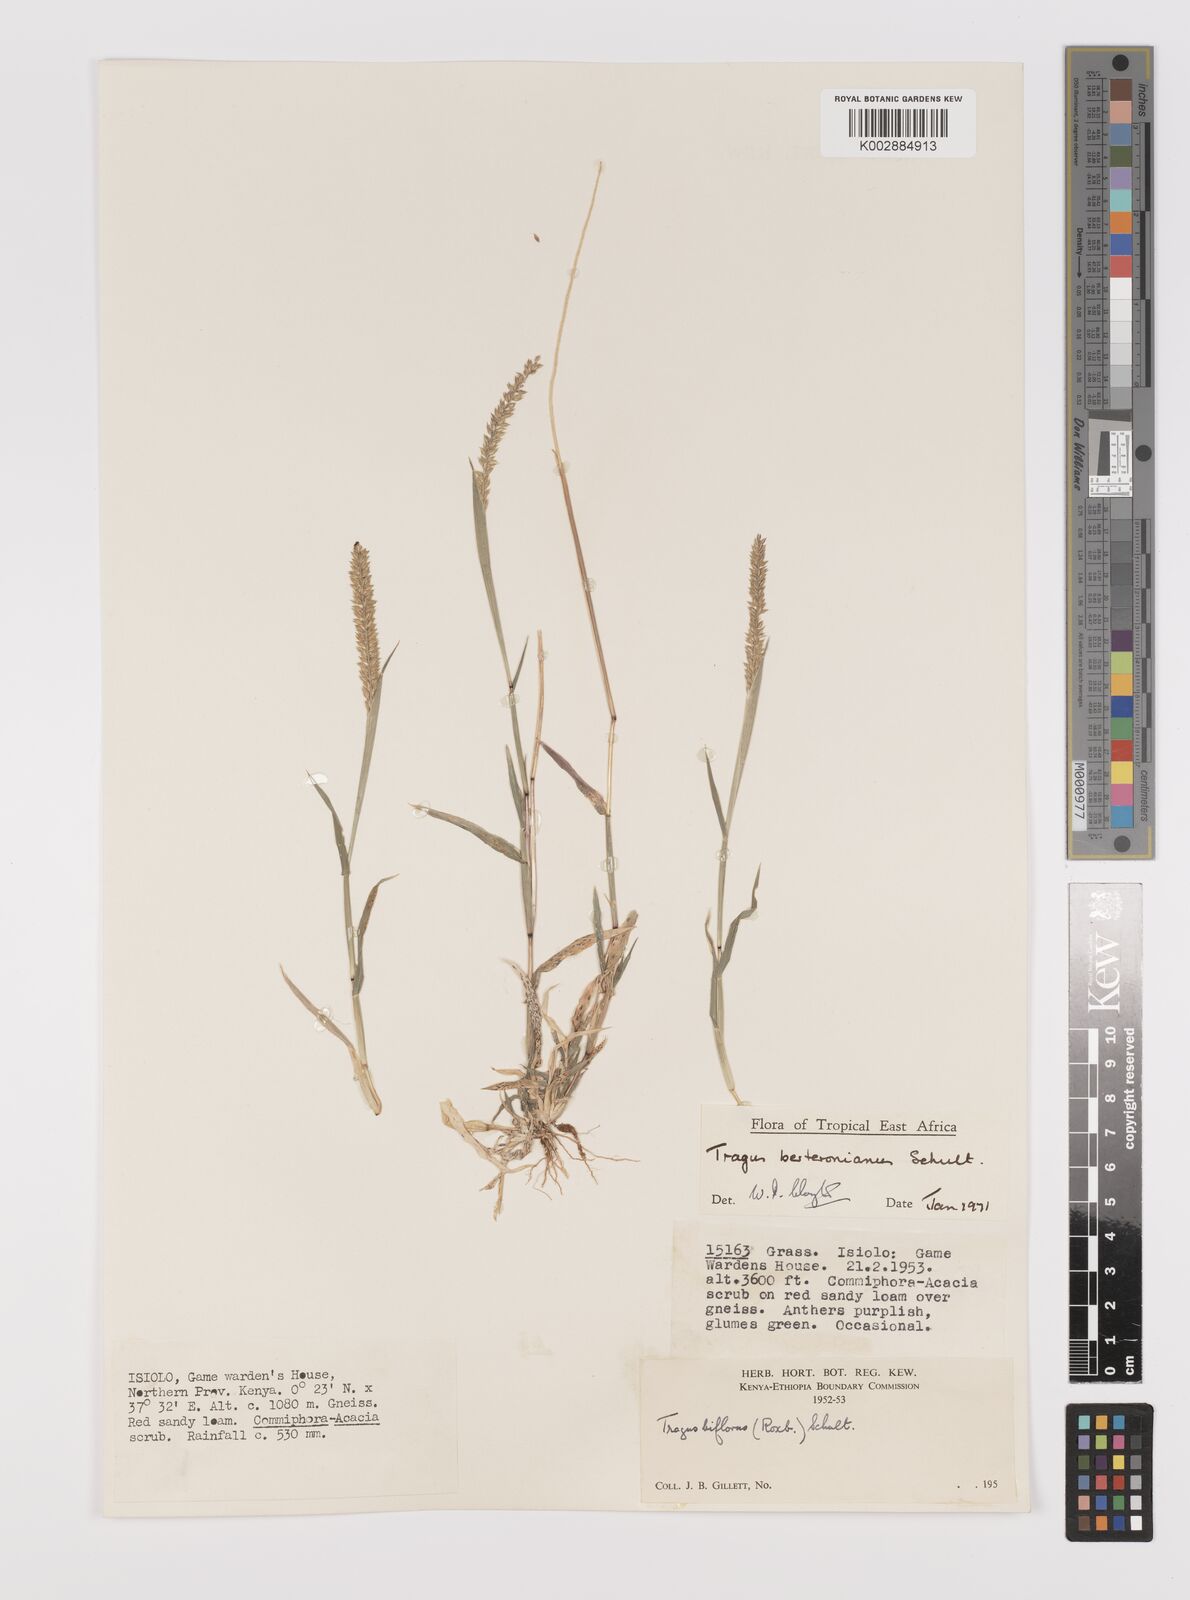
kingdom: Plantae
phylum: Tracheophyta
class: Liliopsida
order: Poales
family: Poaceae
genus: Tragus
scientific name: Tragus berteronianus
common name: African bur-grass
